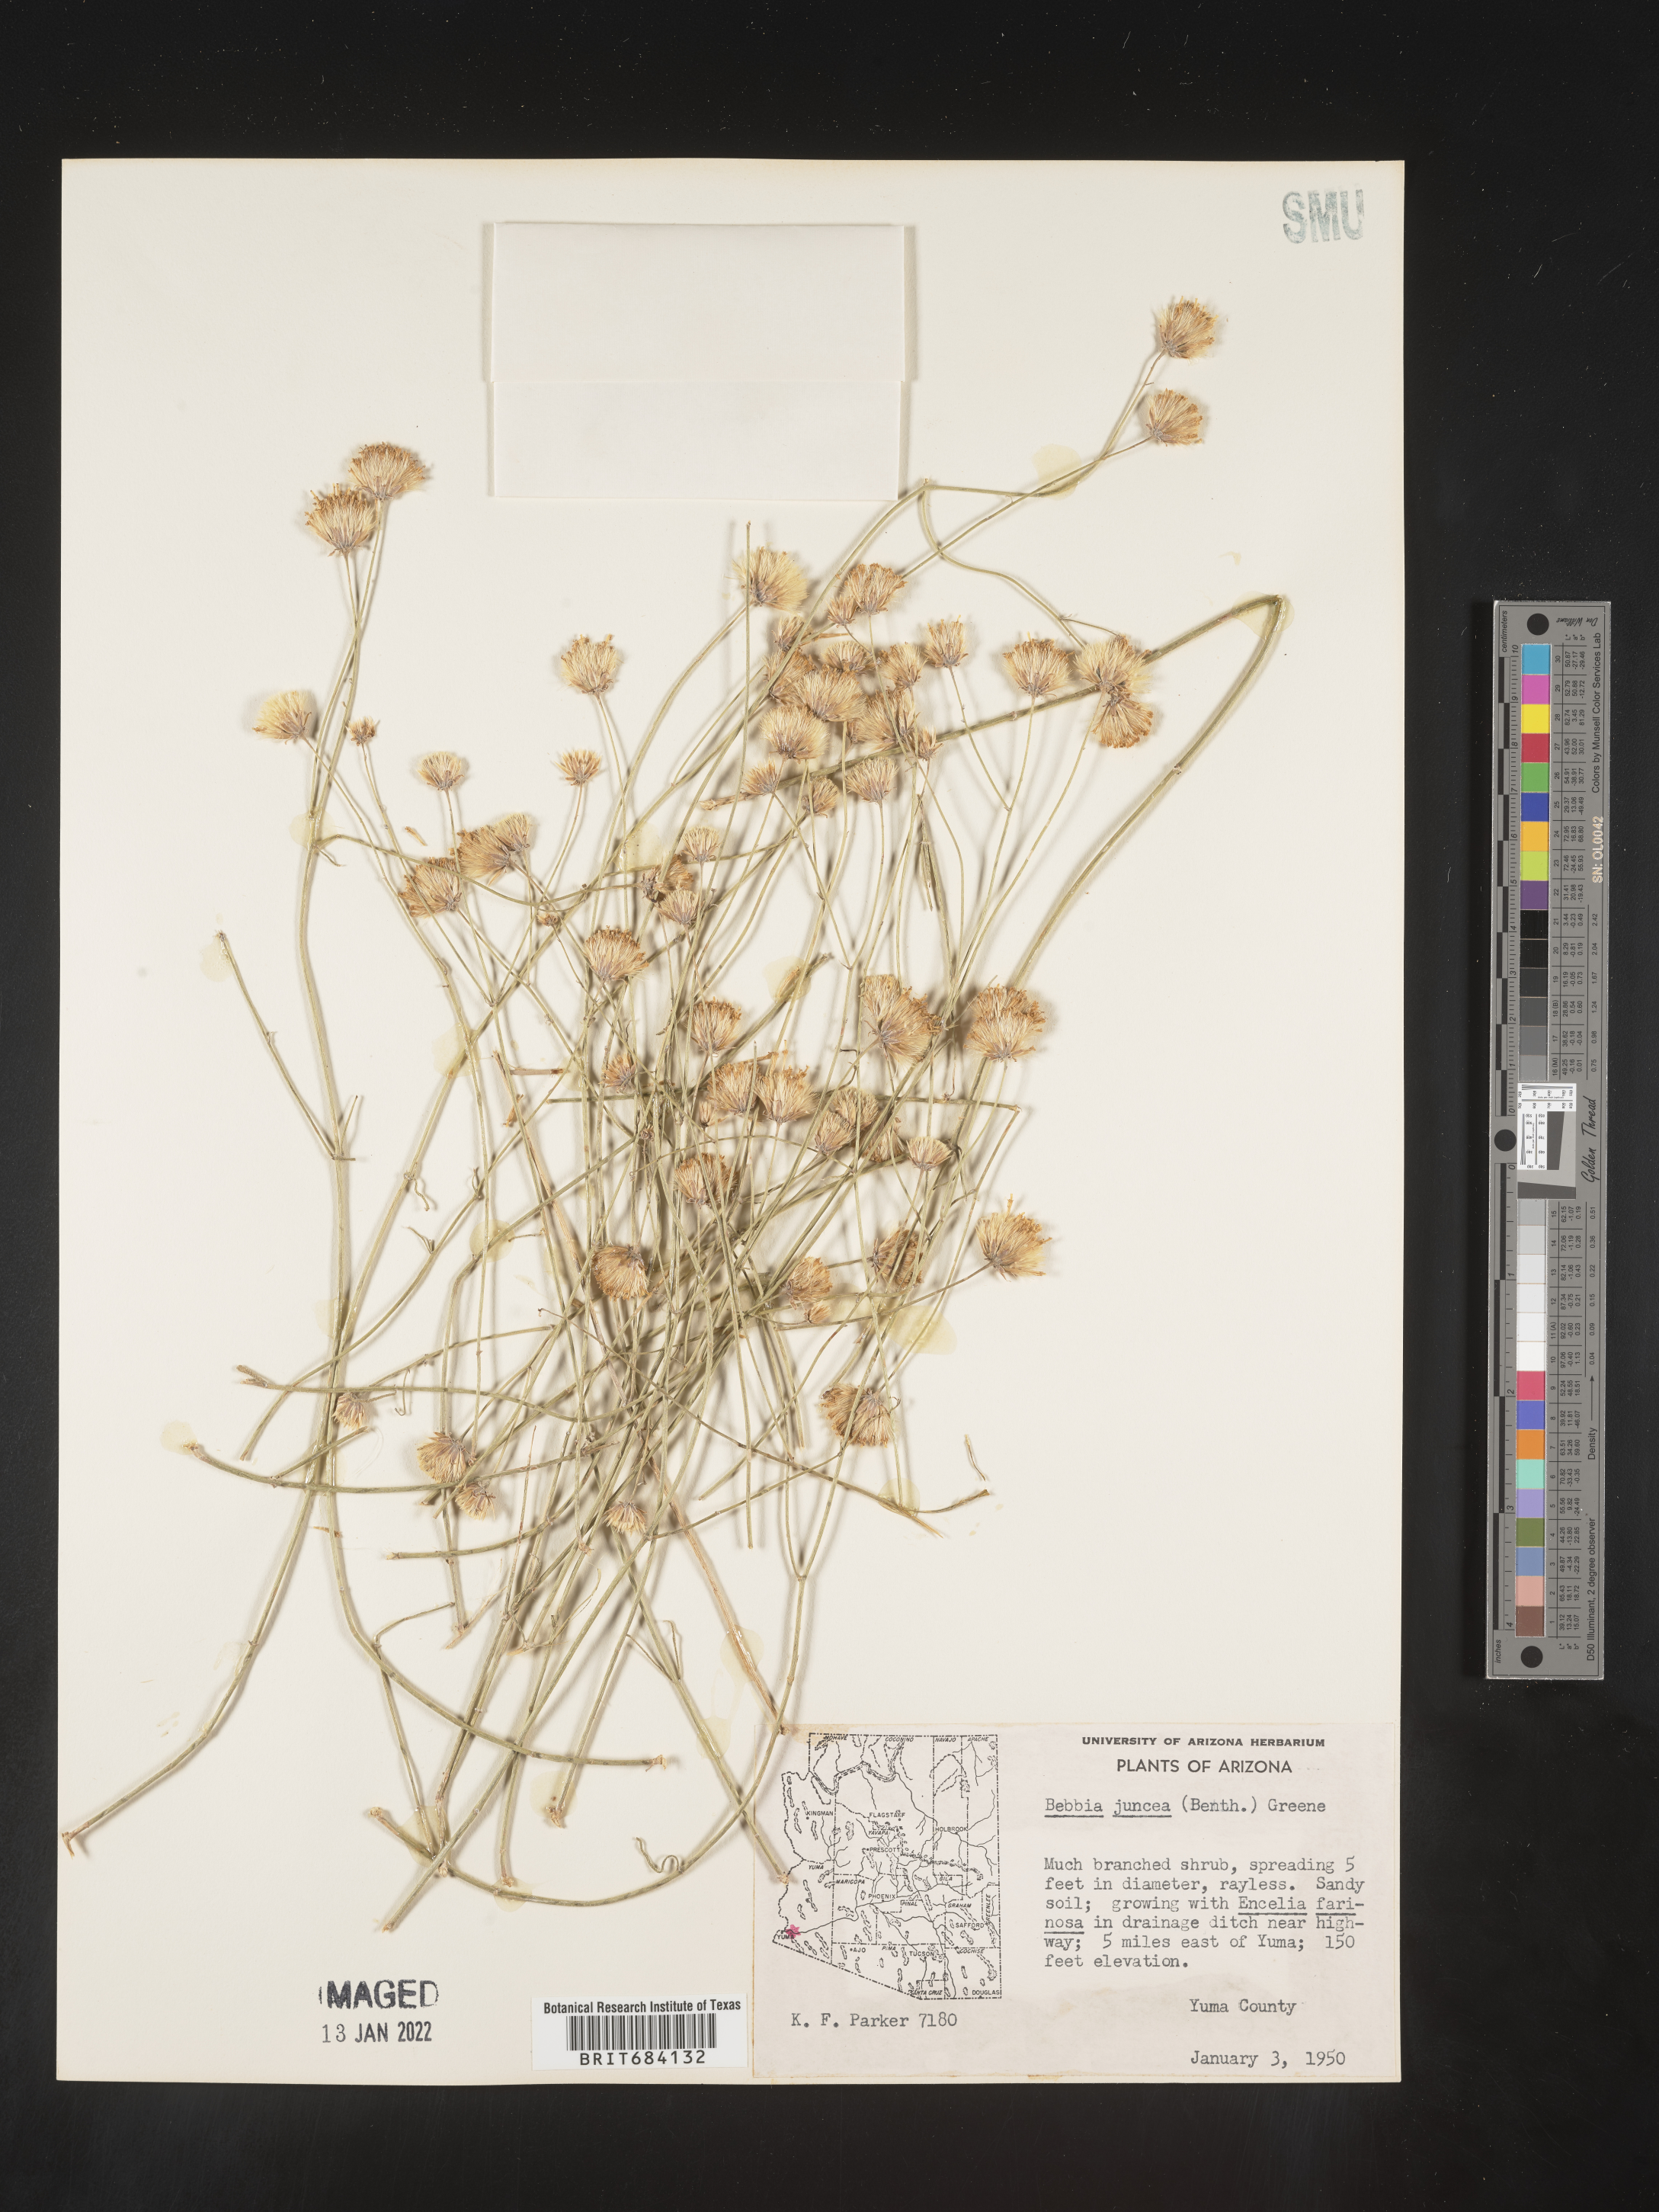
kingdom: Plantae
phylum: Tracheophyta
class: Magnoliopsida
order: Asterales
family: Asteraceae
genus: Bebbia
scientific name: Bebbia
